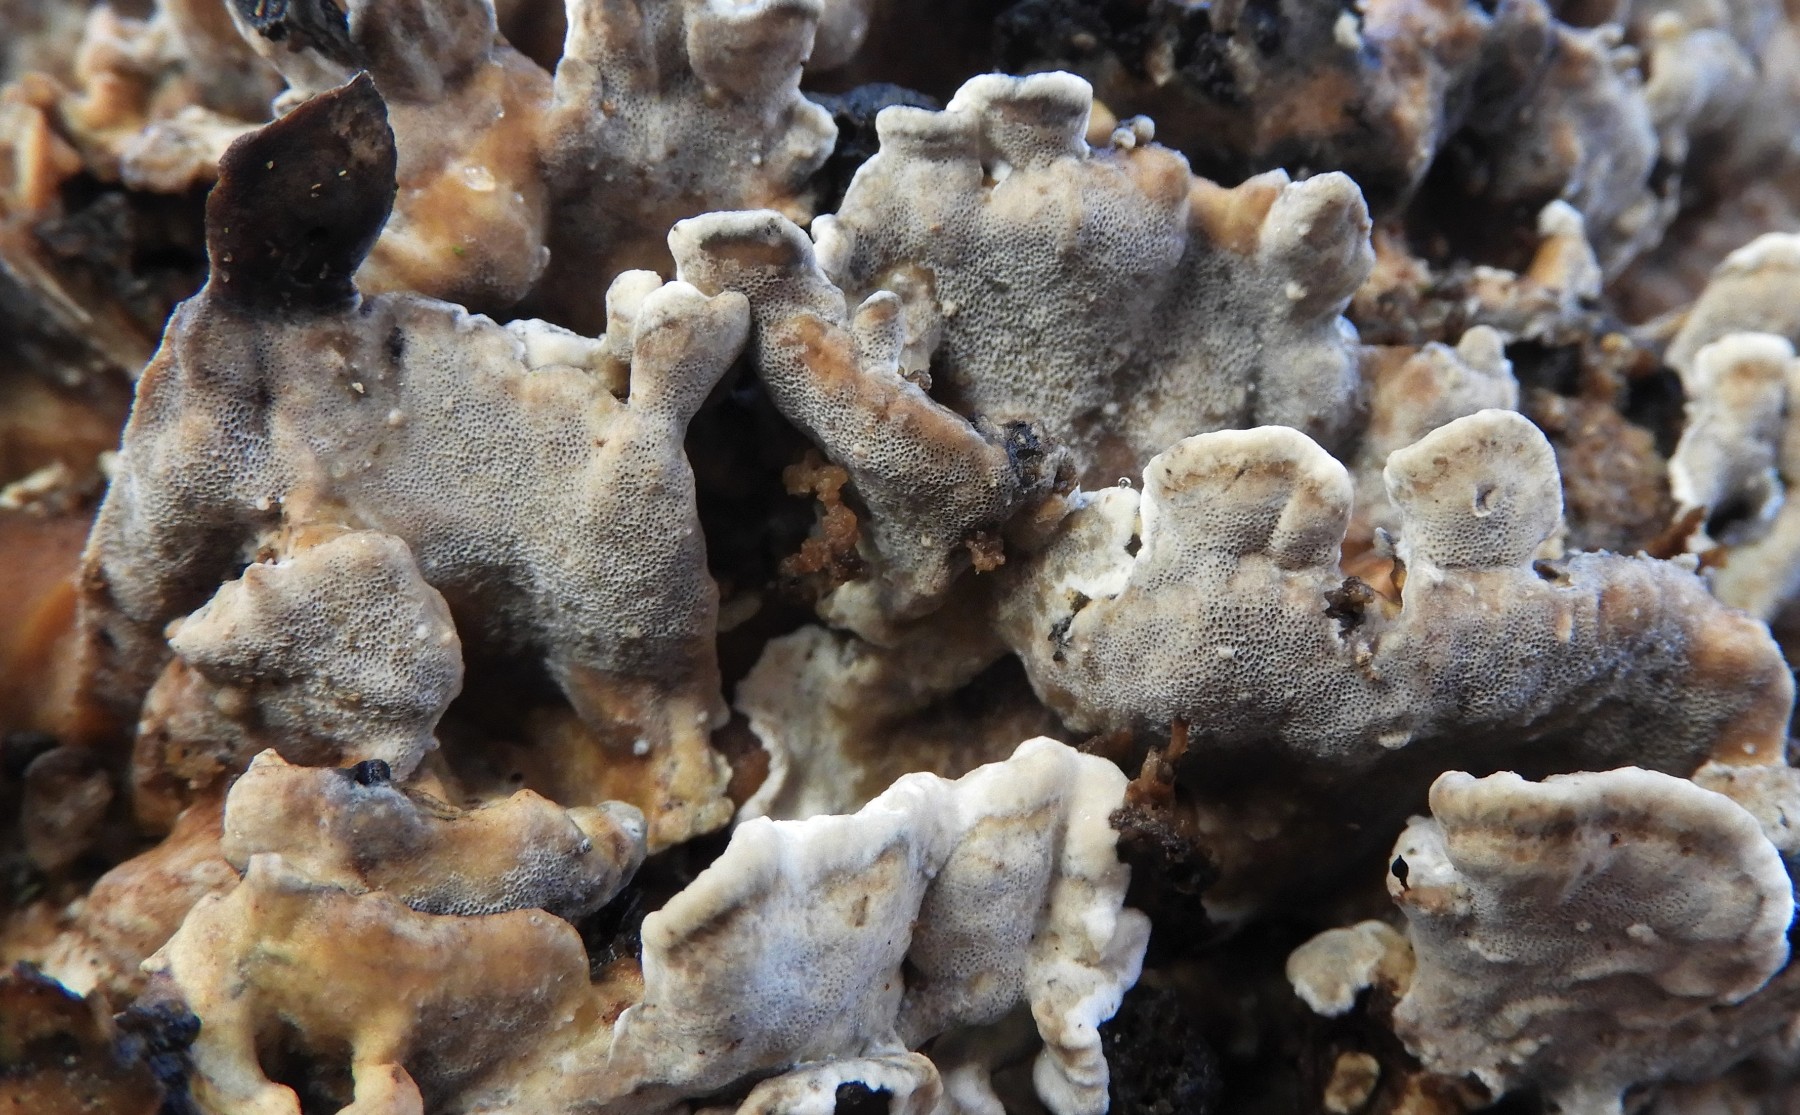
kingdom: Fungi
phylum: Basidiomycota
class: Agaricomycetes
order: Polyporales
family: Phanerochaetaceae
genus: Bjerkandera
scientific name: Bjerkandera adusta
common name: sveden sodporesvamp
